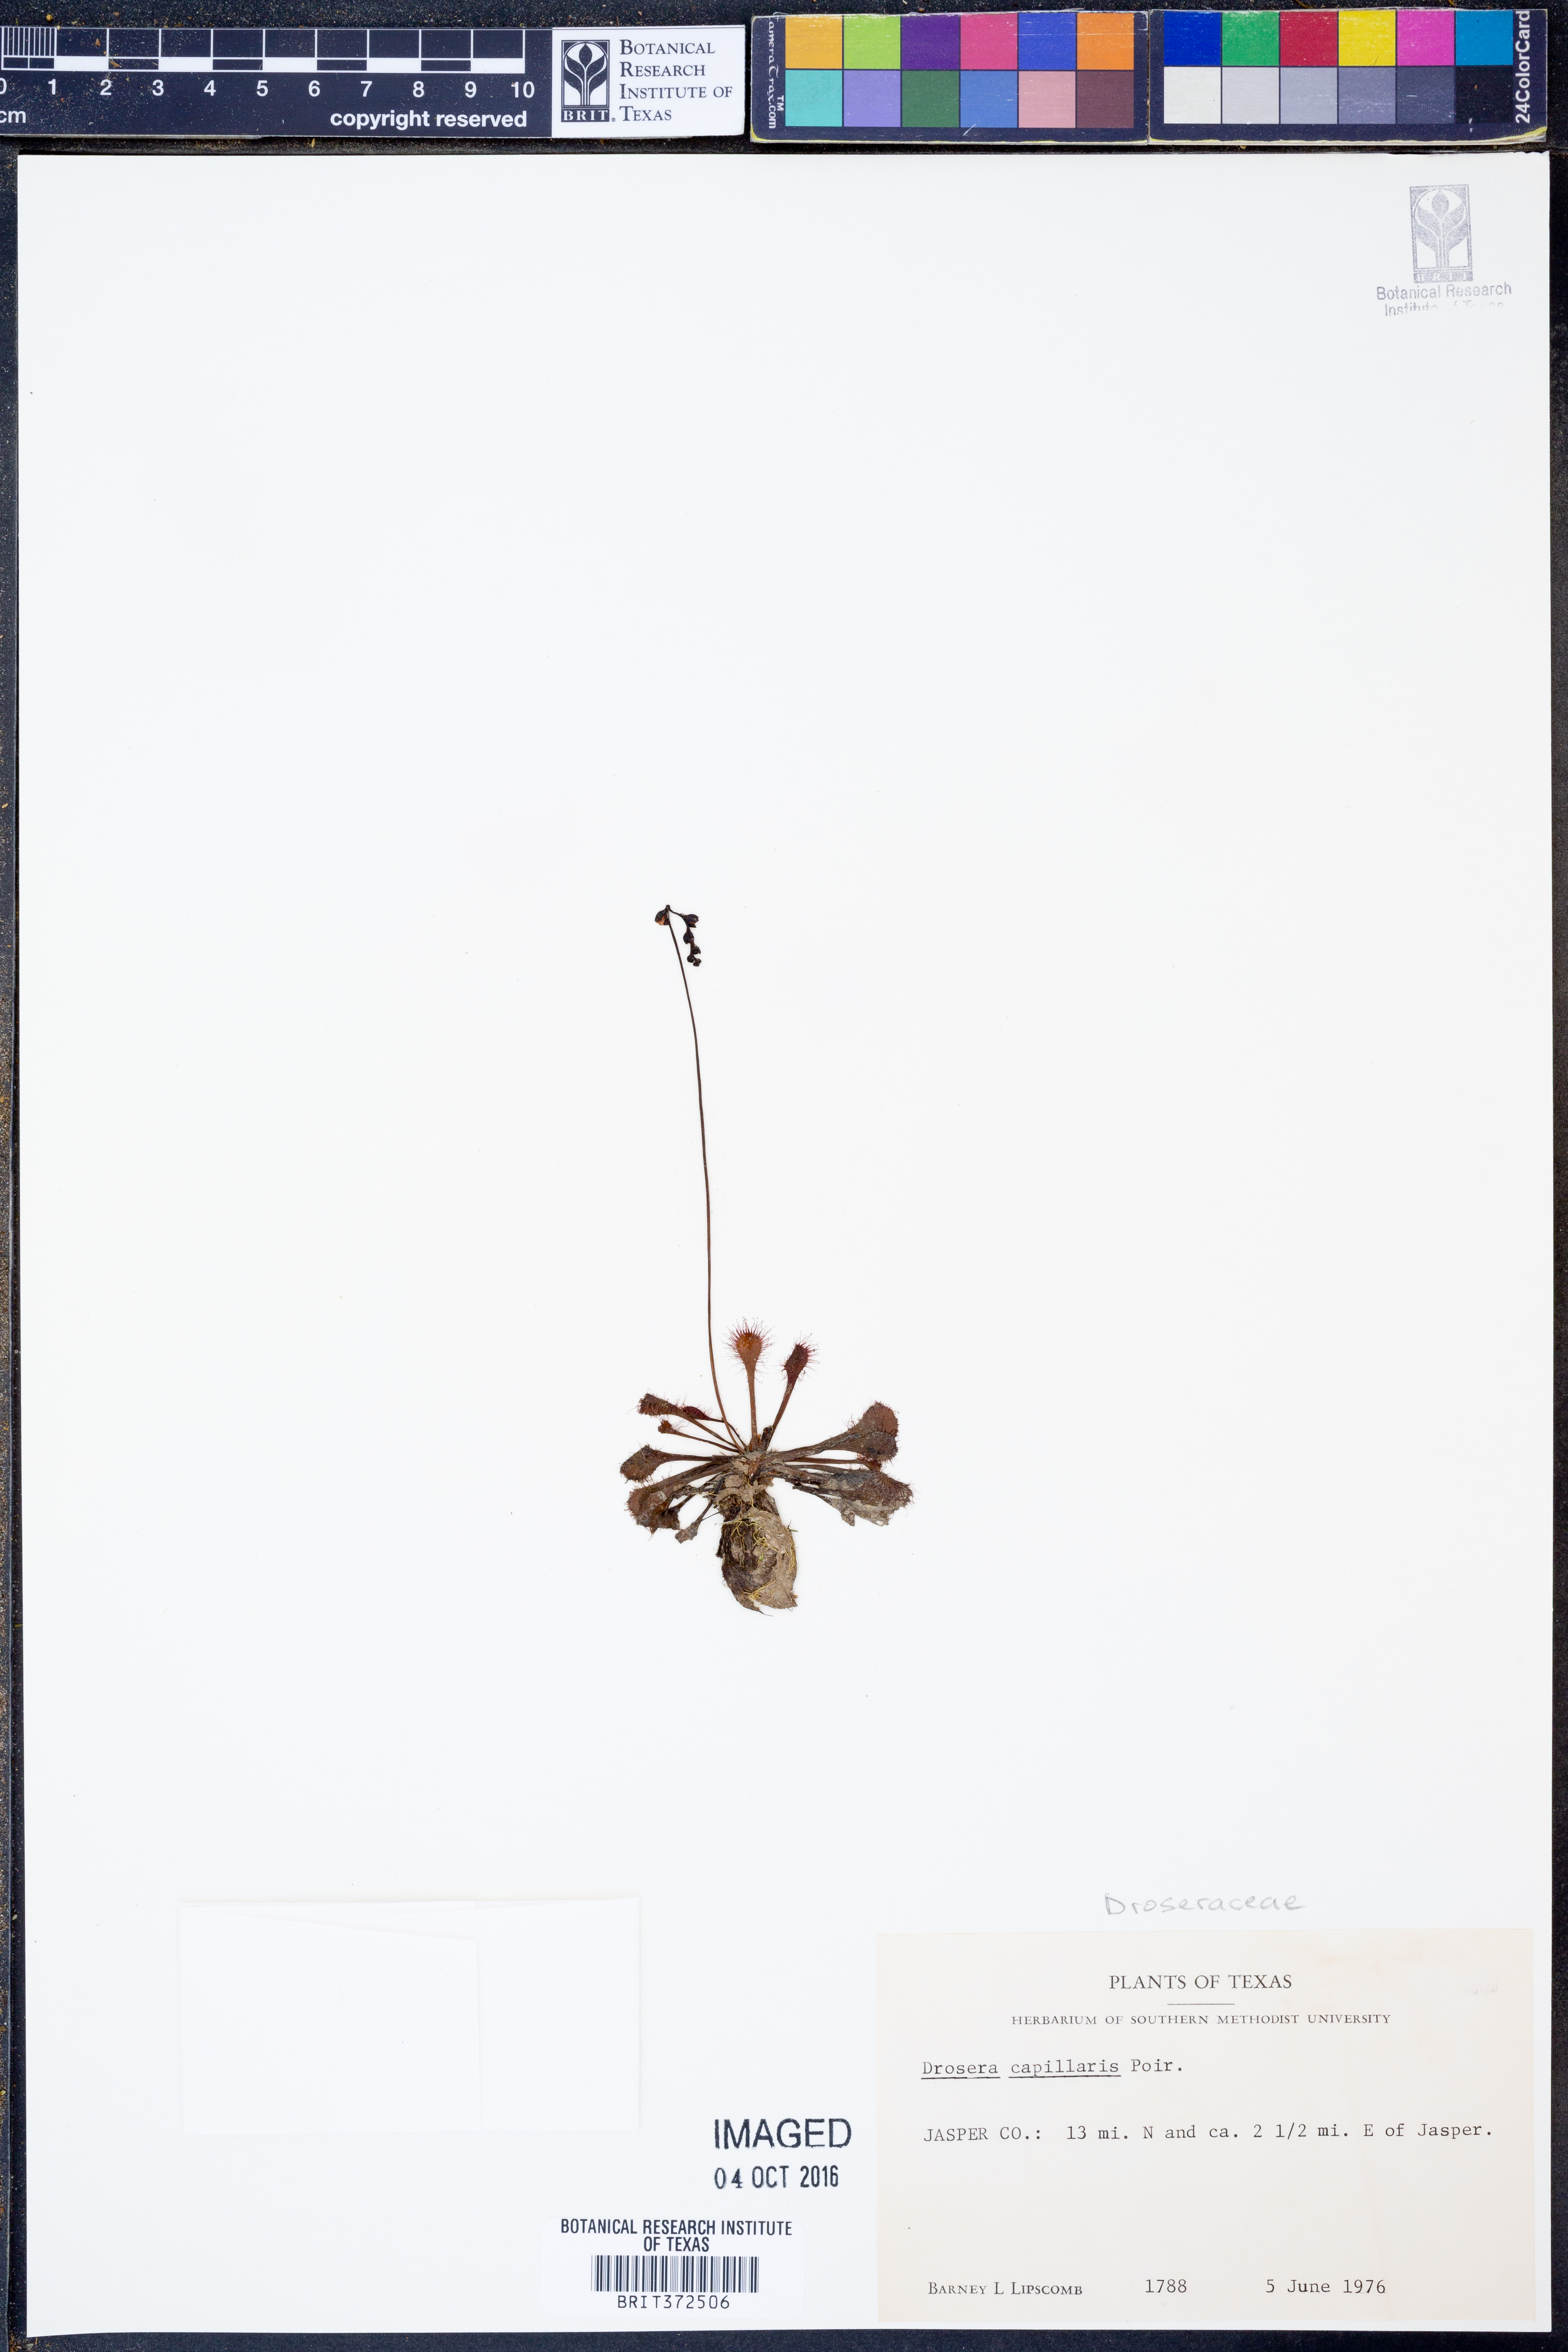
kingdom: Plantae
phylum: Tracheophyta
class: Magnoliopsida
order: Caryophyllales
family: Droseraceae
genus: Drosera
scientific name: Drosera capillaris
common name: Pink sundew
